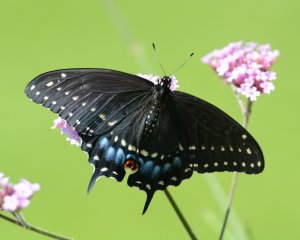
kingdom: Animalia
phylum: Arthropoda
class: Insecta
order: Lepidoptera
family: Papilionidae
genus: Papilio
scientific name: Papilio polyxenes
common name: Black Swallowtail
